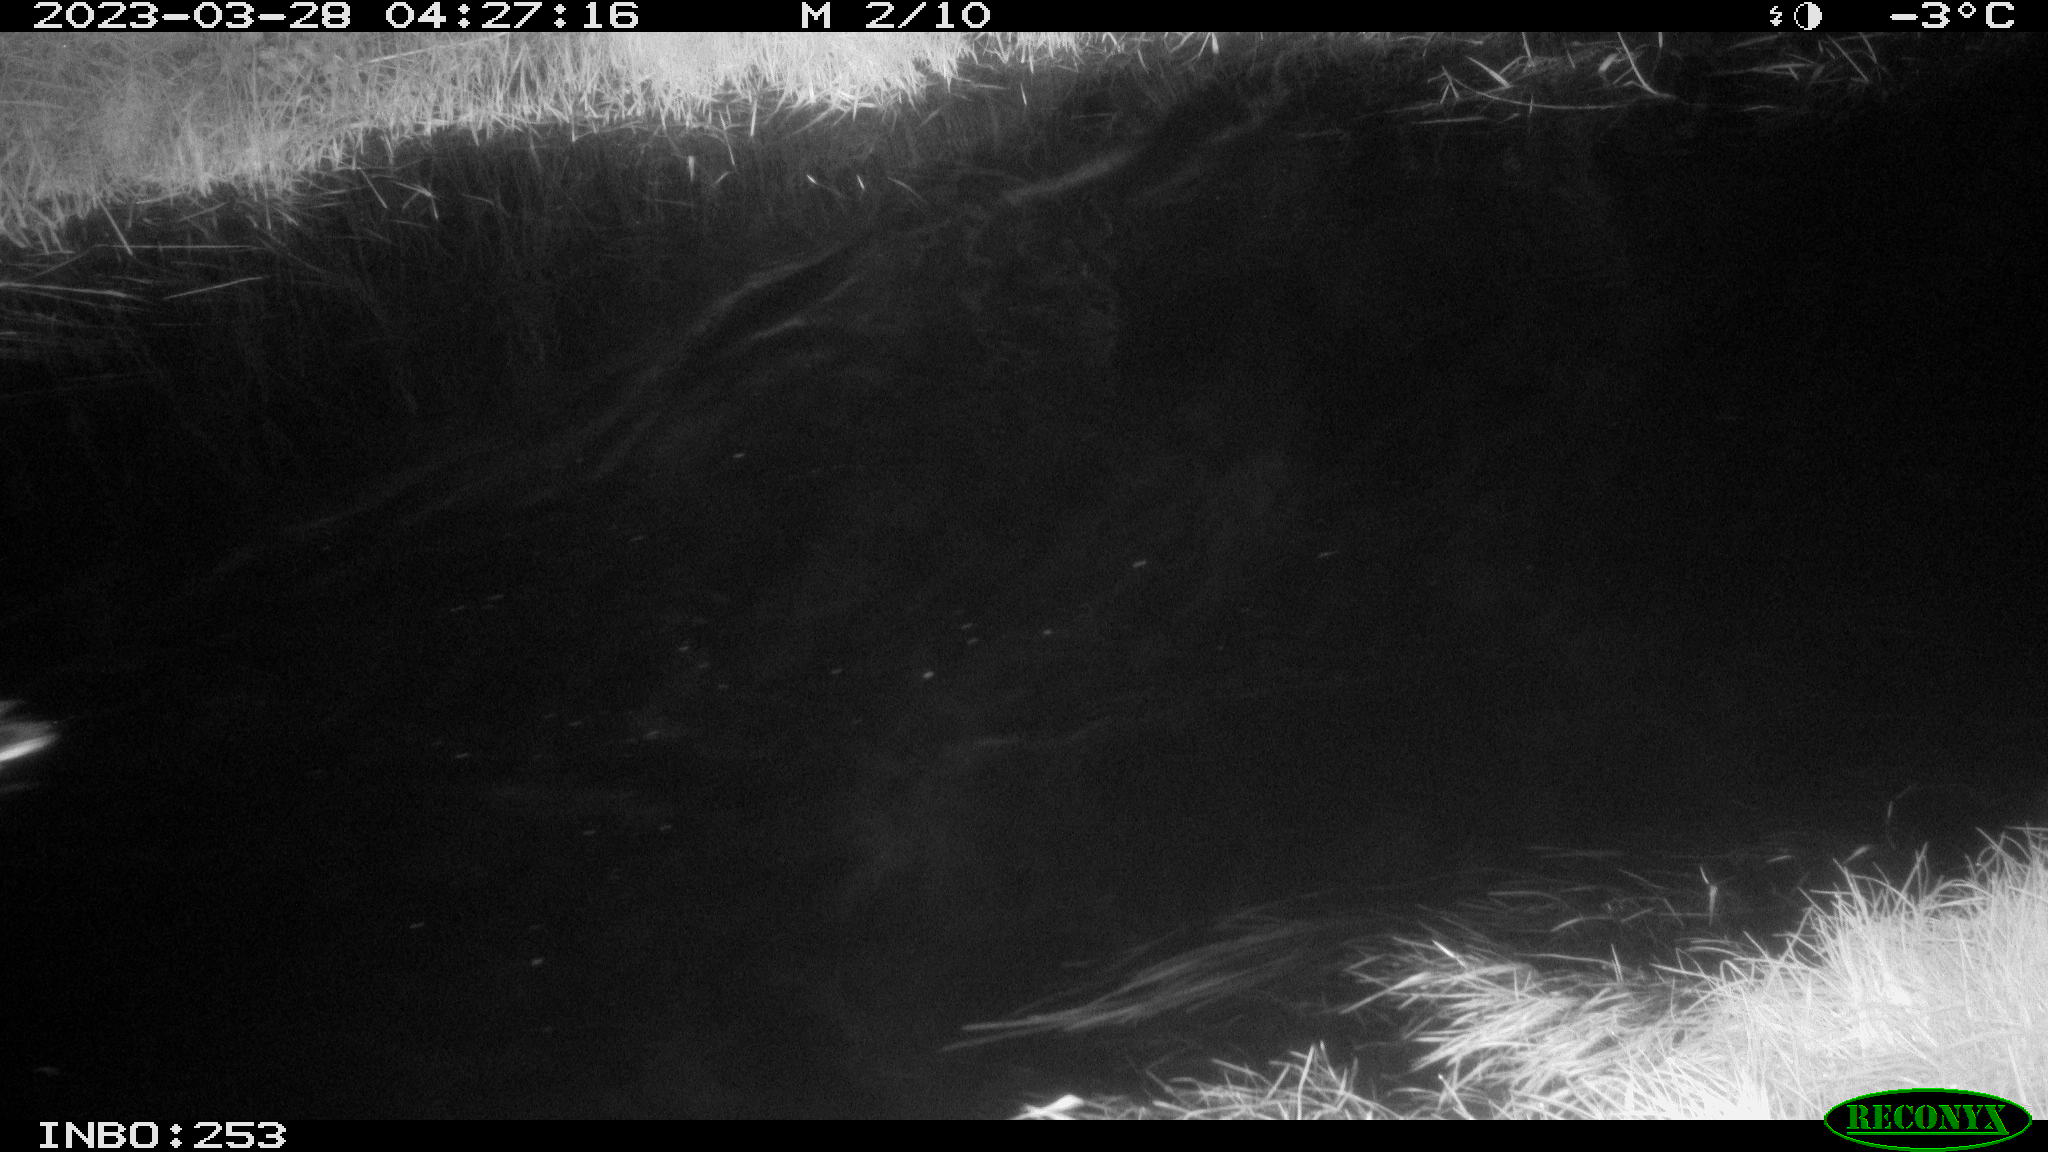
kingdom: Animalia
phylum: Chordata
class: Aves
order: Anseriformes
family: Anatidae
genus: Anas
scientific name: Anas
